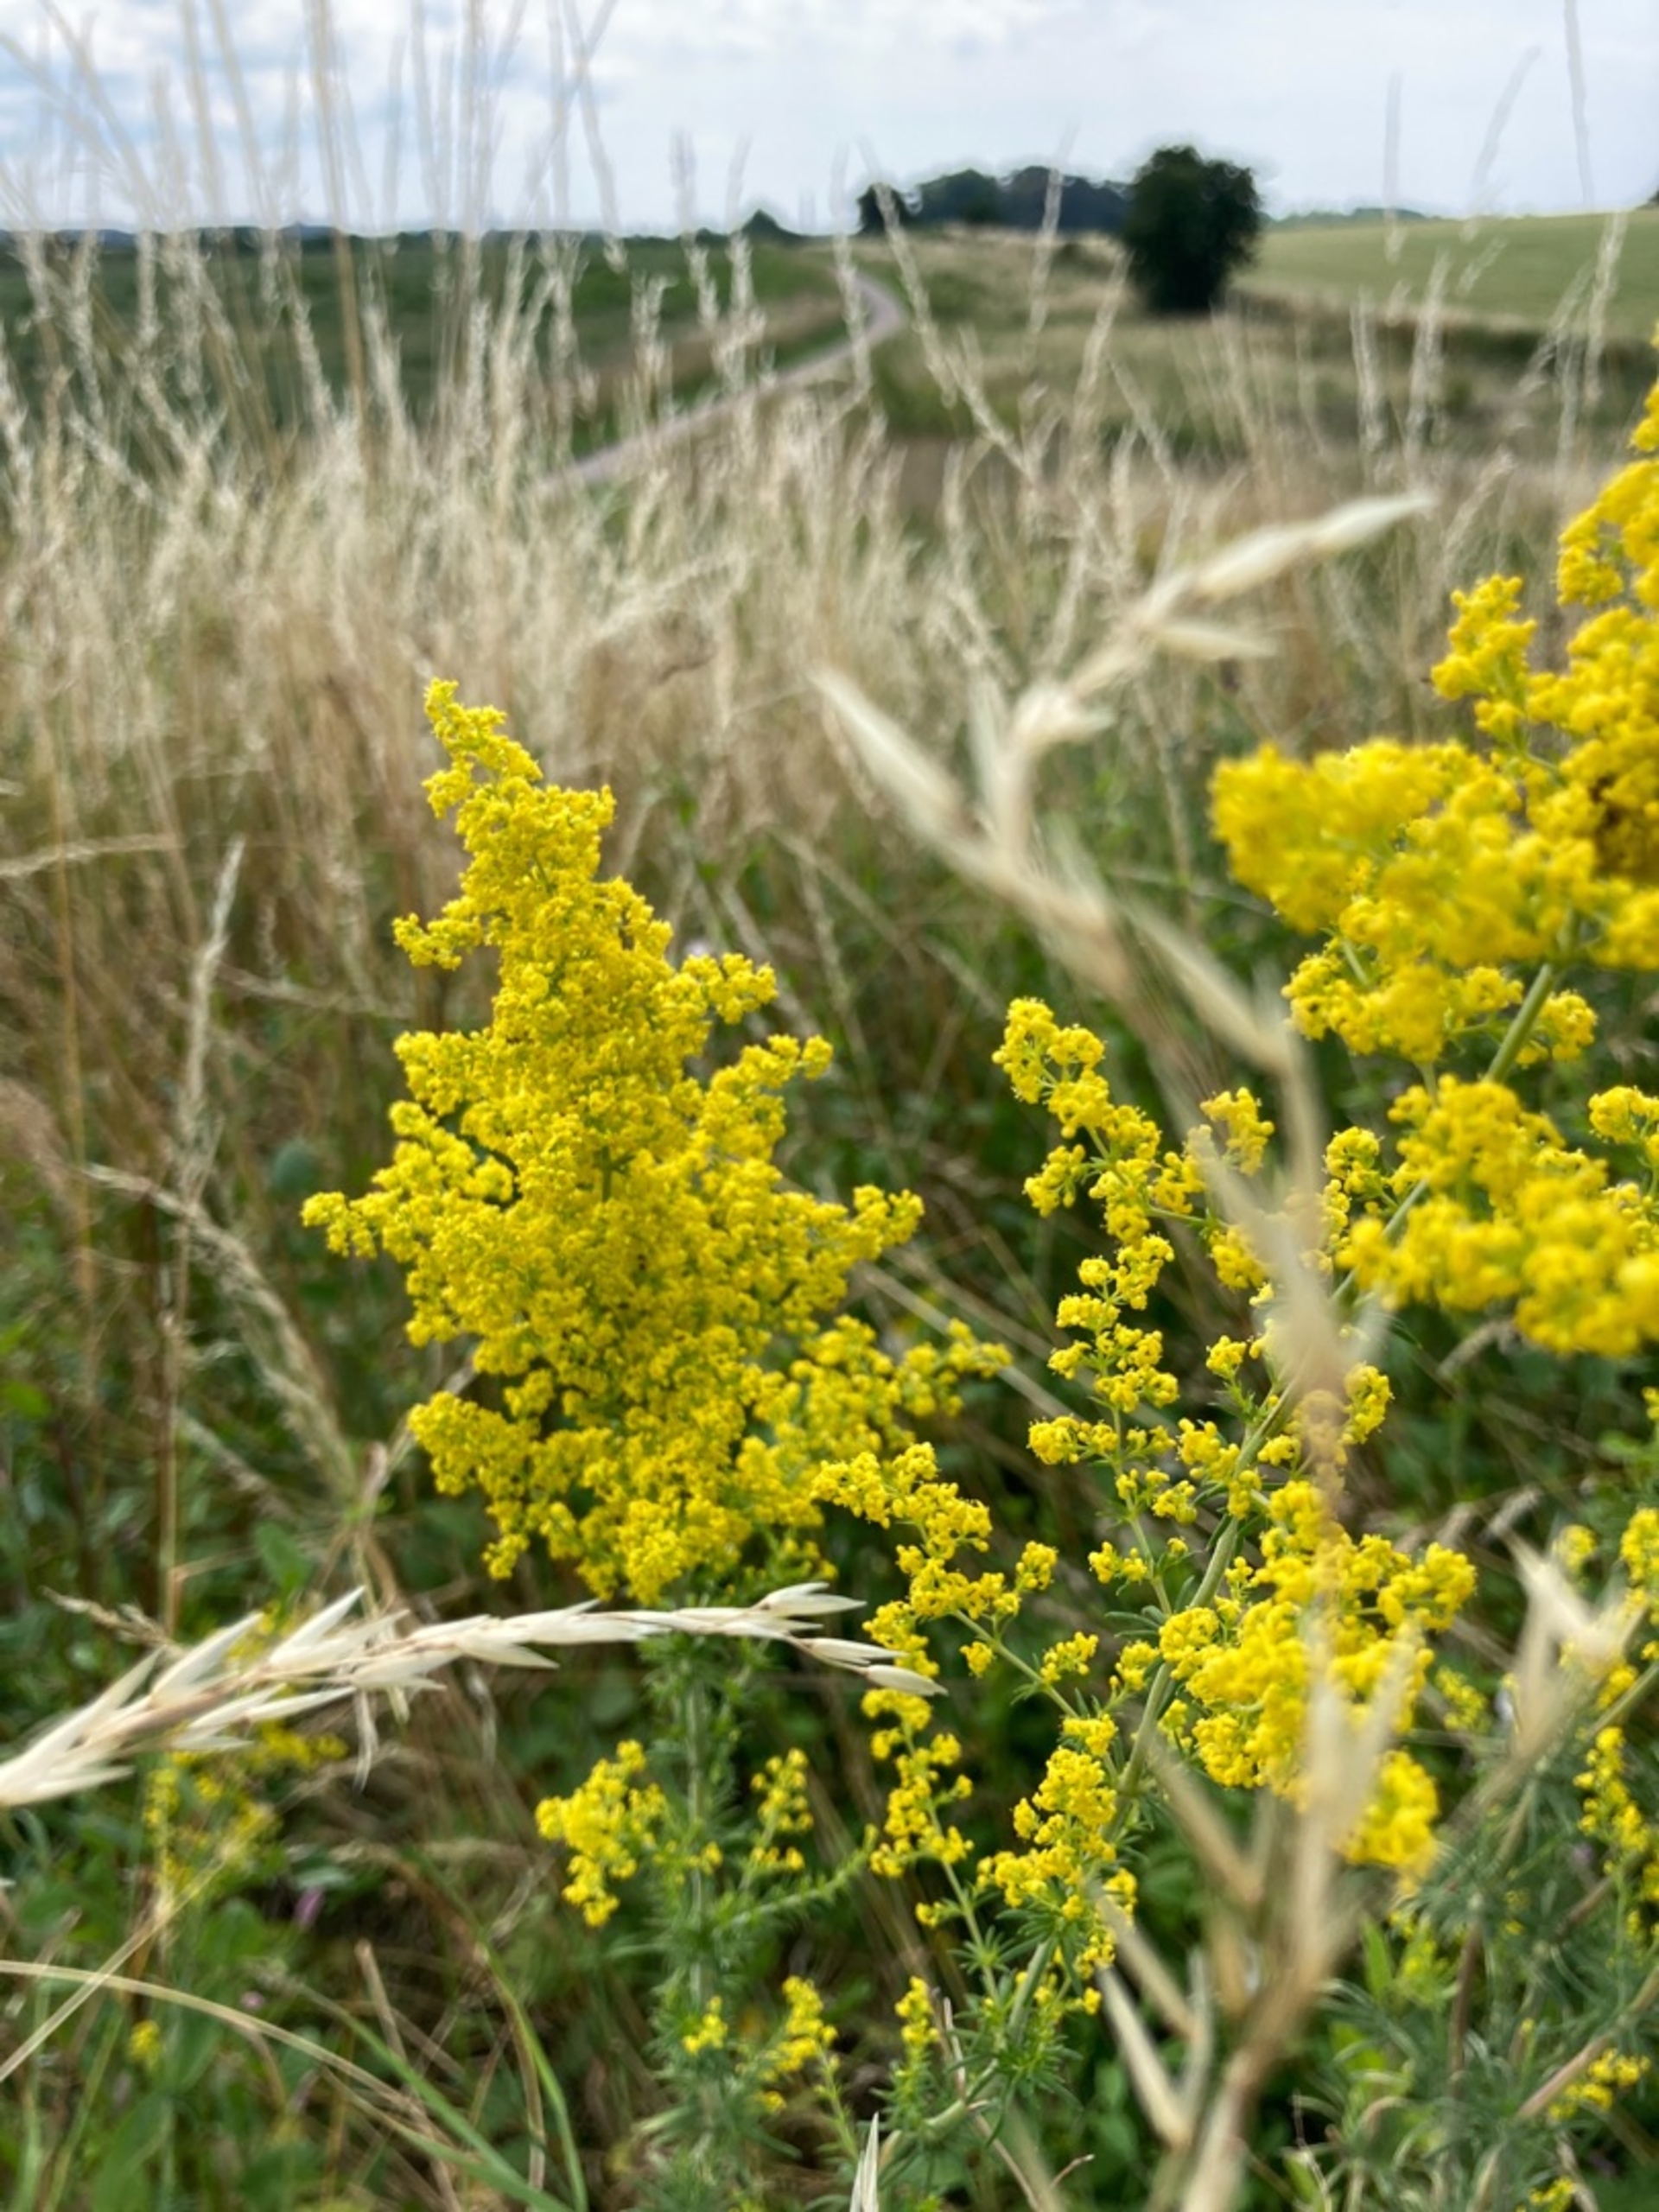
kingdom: Plantae
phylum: Tracheophyta
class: Magnoliopsida
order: Gentianales
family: Rubiaceae
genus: Galium
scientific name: Galium verum
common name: Gul snerre
